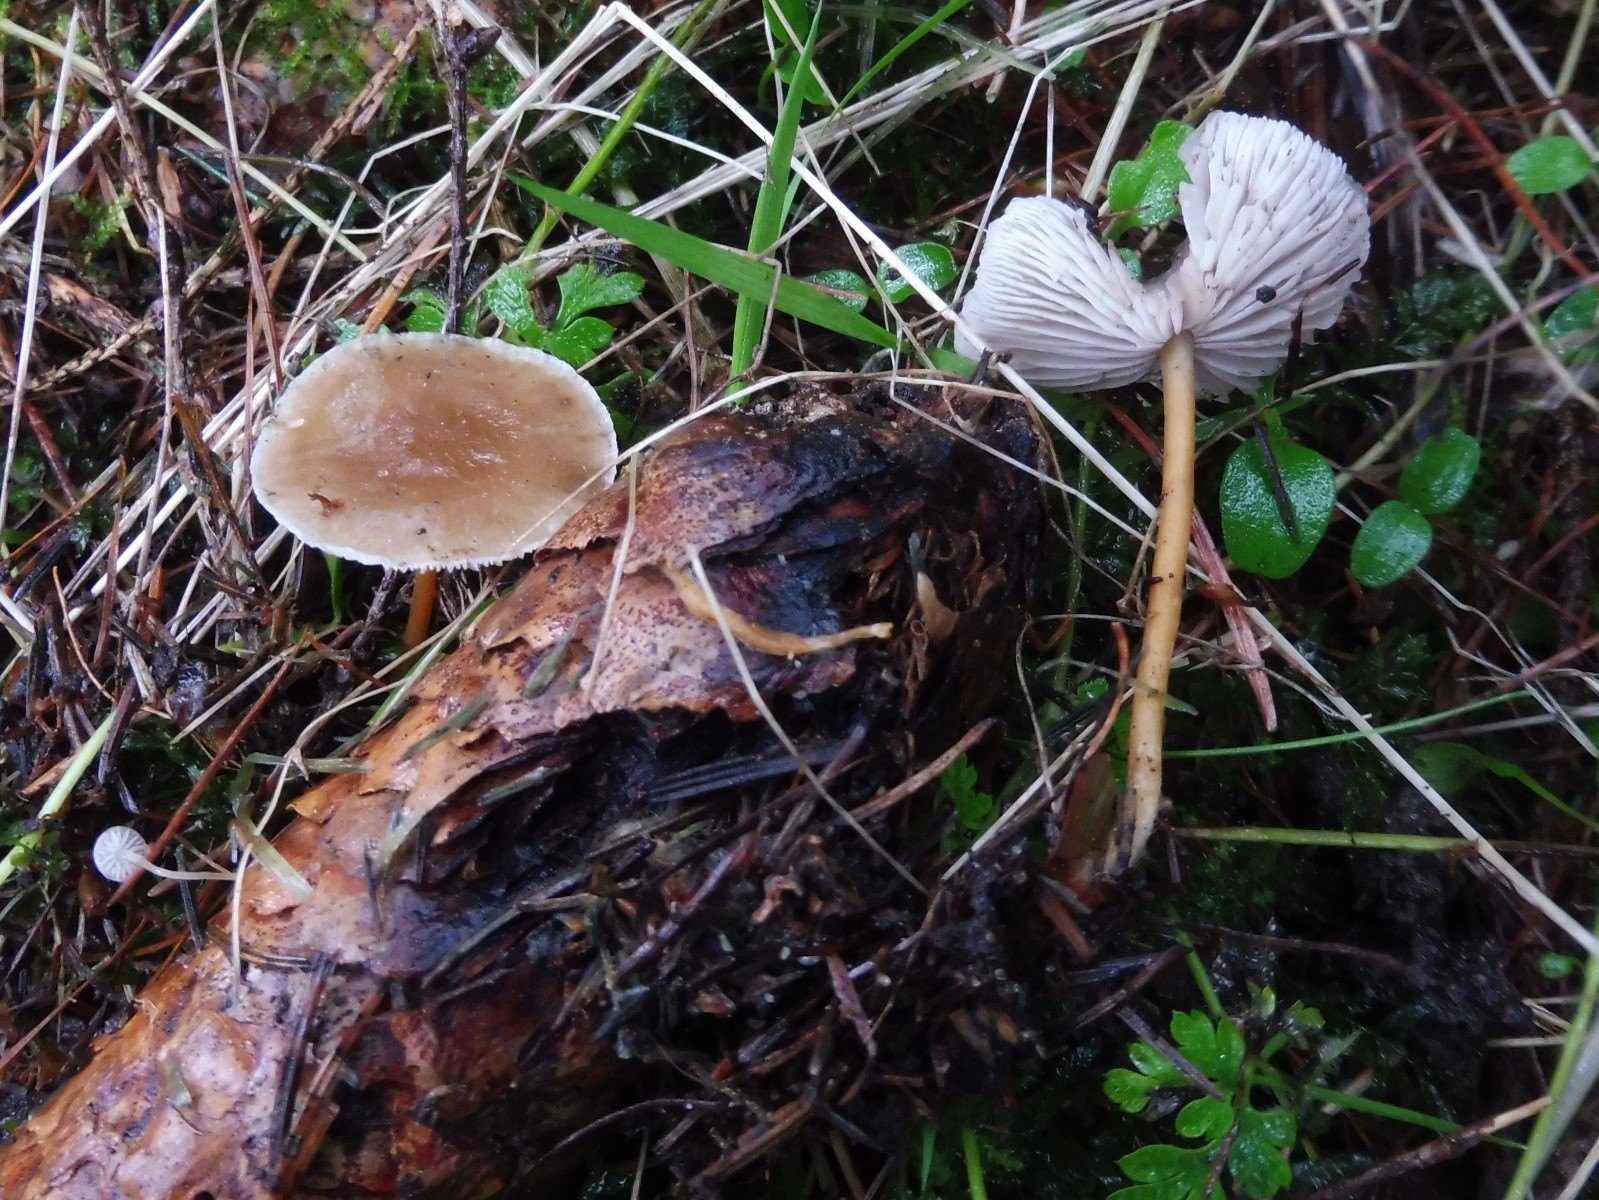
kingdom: Fungi
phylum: Basidiomycota
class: Agaricomycetes
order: Agaricales
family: Physalacriaceae
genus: Strobilurus
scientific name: Strobilurus esculentus
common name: gran-koglehat
